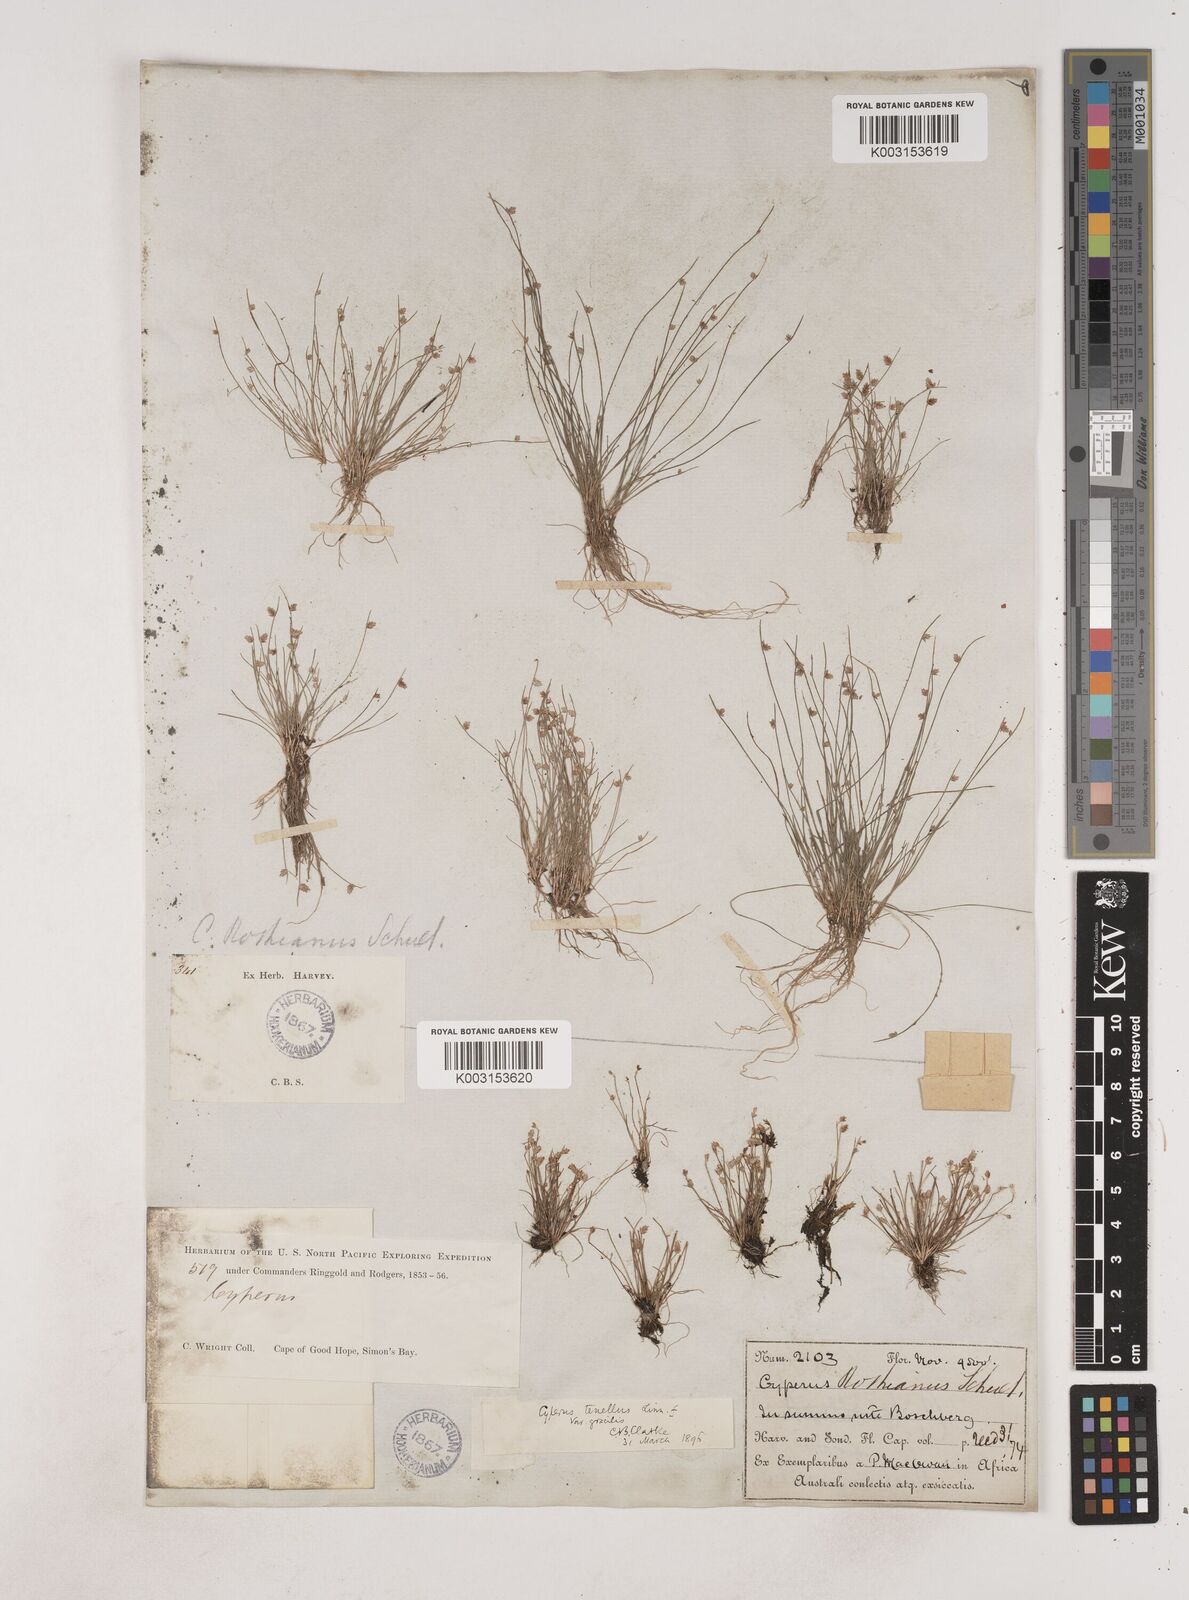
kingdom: Plantae
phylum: Tracheophyta
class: Liliopsida
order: Poales
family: Cyperaceae
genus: Isolepis
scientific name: Isolepis levynsiana
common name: Sedge
